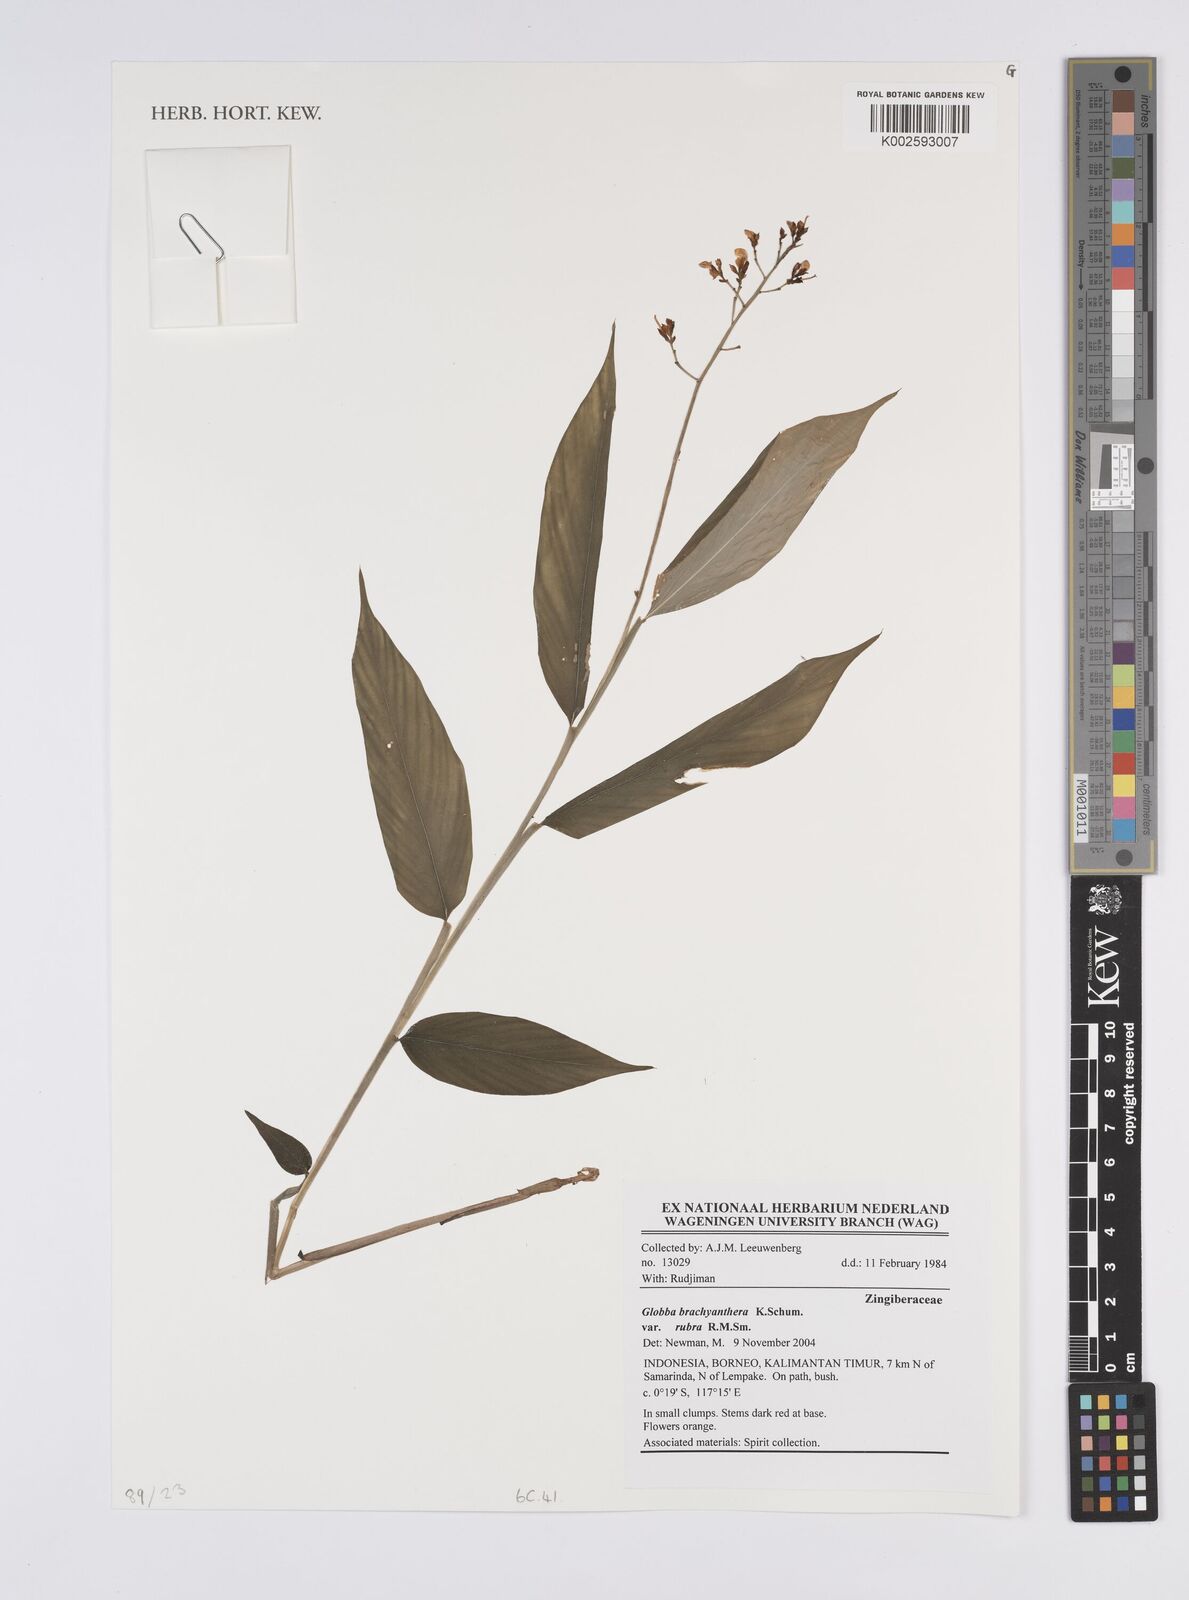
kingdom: Plantae
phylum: Tracheophyta
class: Liliopsida
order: Zingiberales
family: Zingiberaceae
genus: Globba
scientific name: Globba brachyanthera
